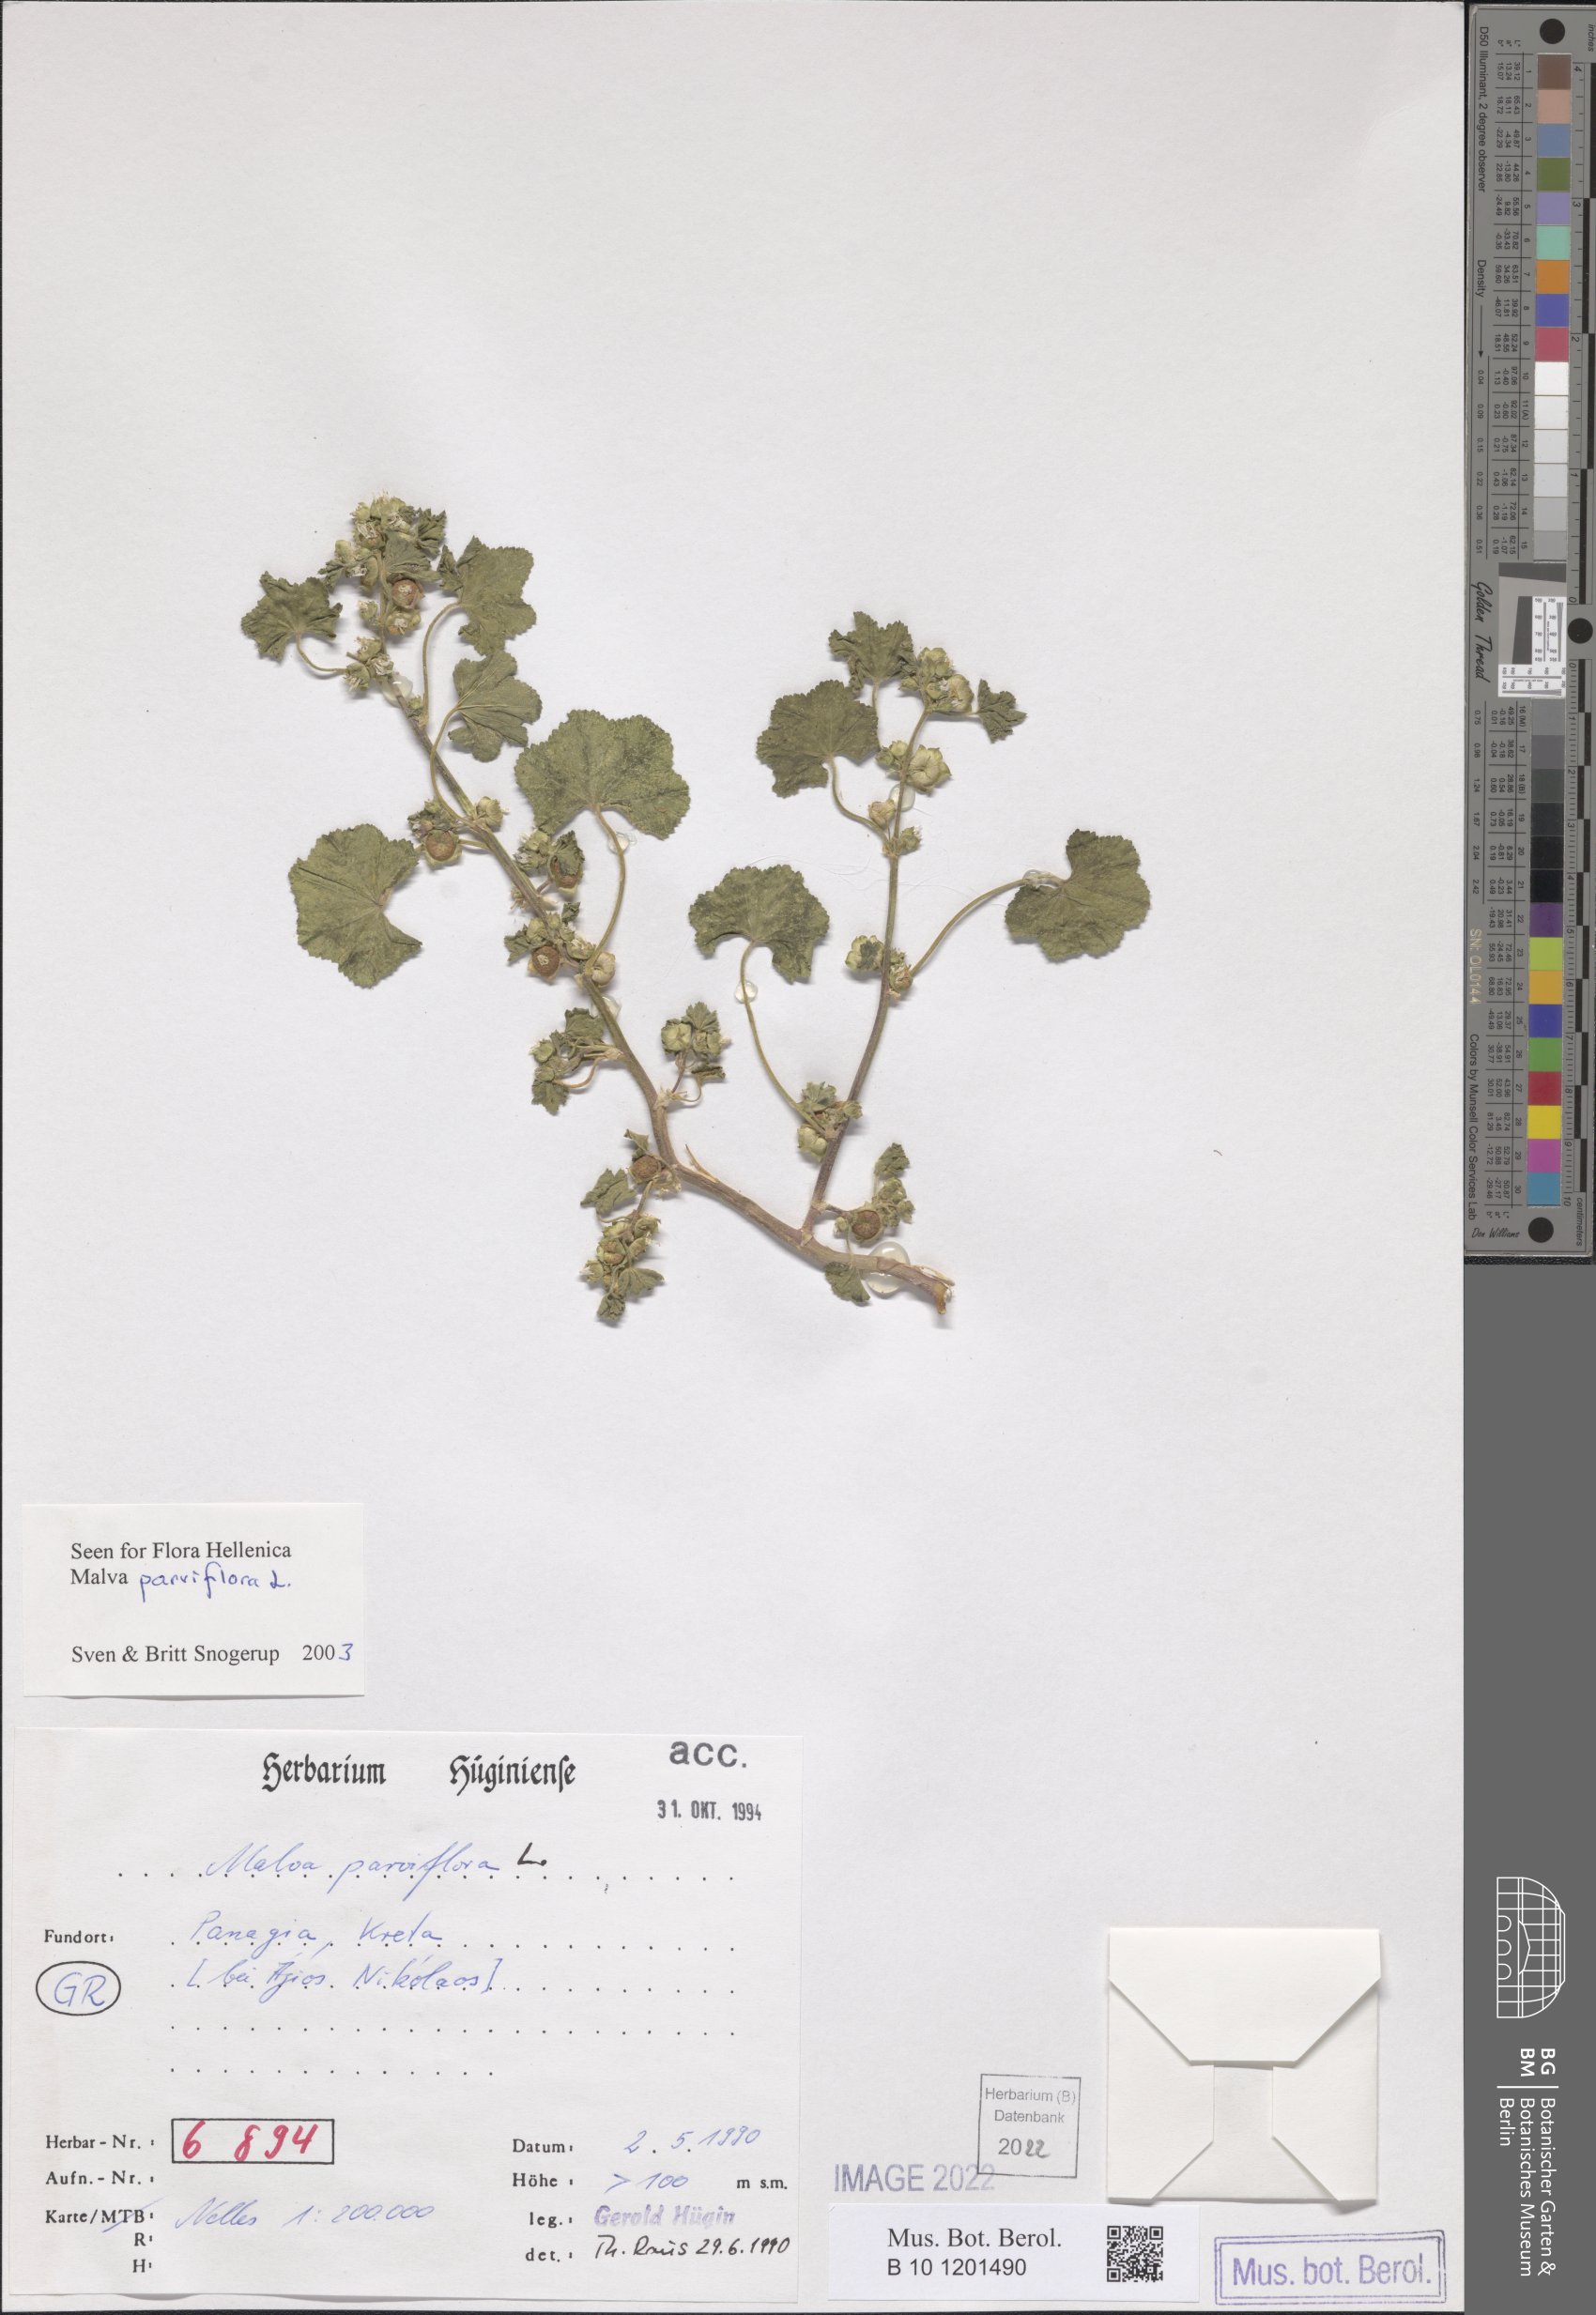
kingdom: Plantae
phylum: Tracheophyta
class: Magnoliopsida
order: Malvales
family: Malvaceae
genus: Malva
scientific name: Malva parviflora
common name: Least mallow
